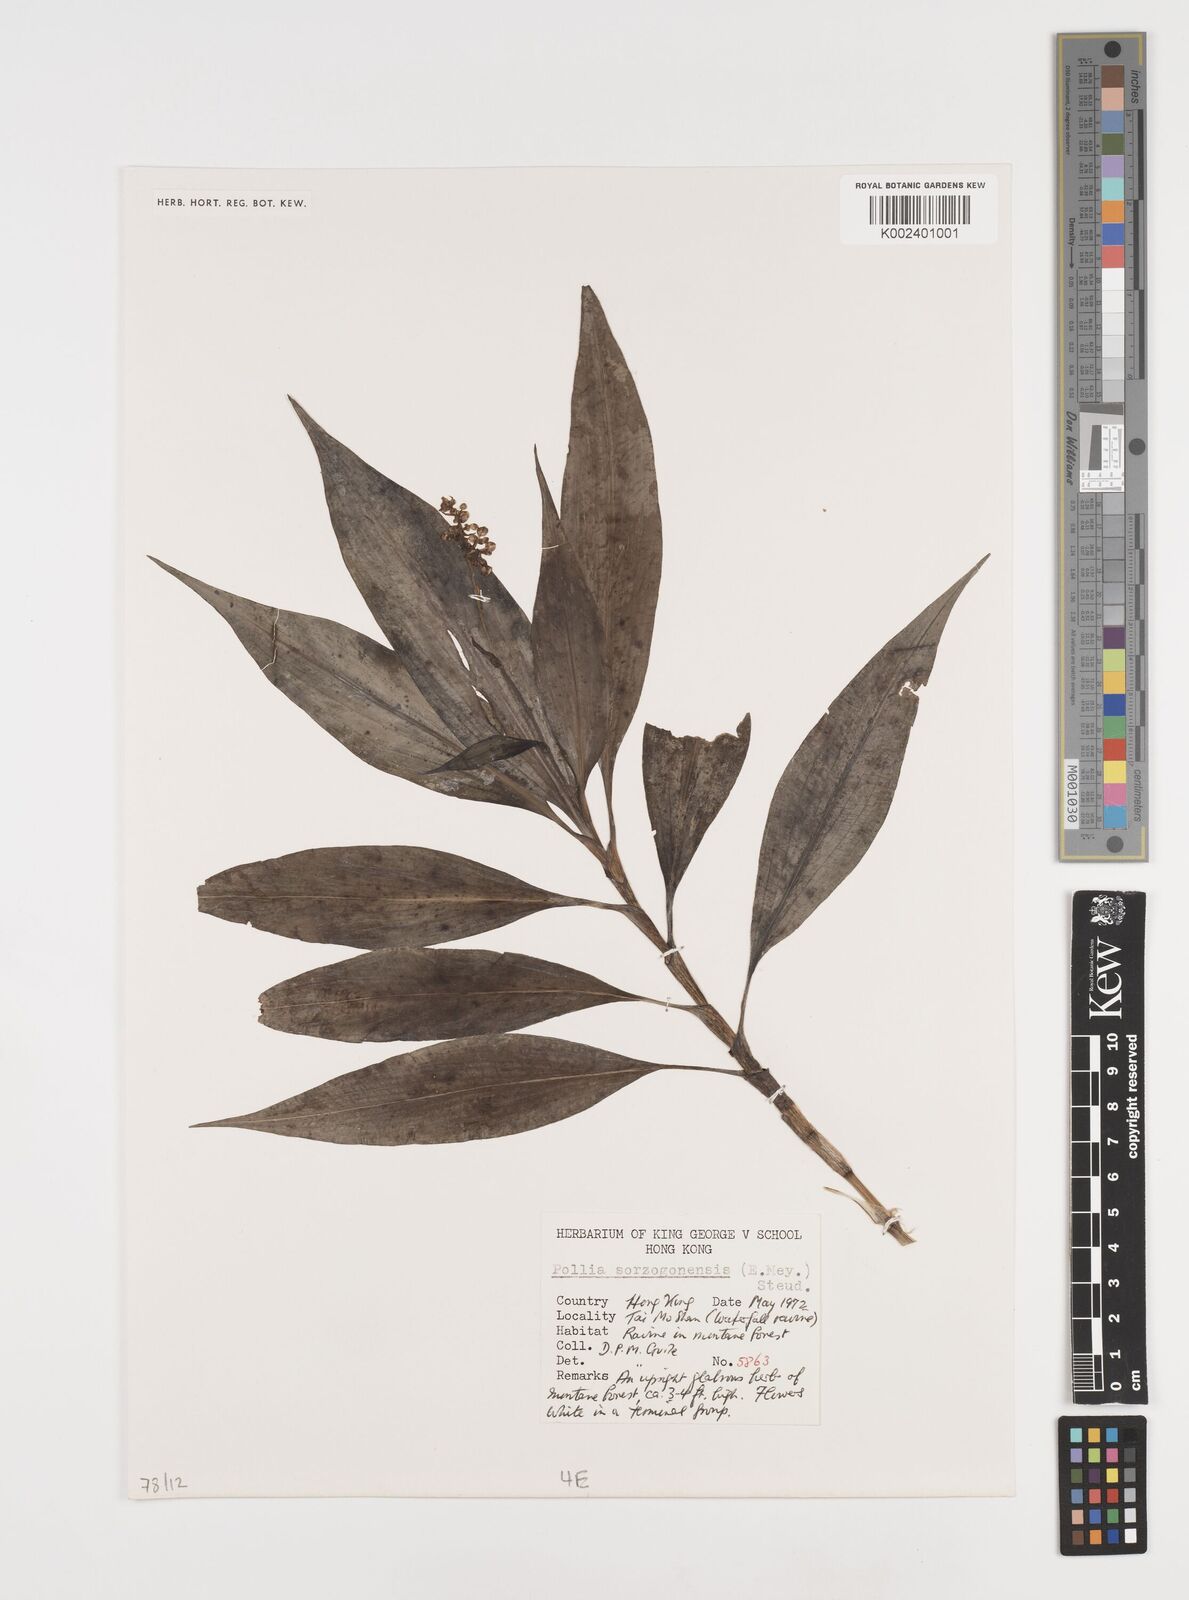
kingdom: Plantae
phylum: Tracheophyta
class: Liliopsida
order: Commelinales
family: Commelinaceae
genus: Pollia
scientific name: Pollia secundiflora
